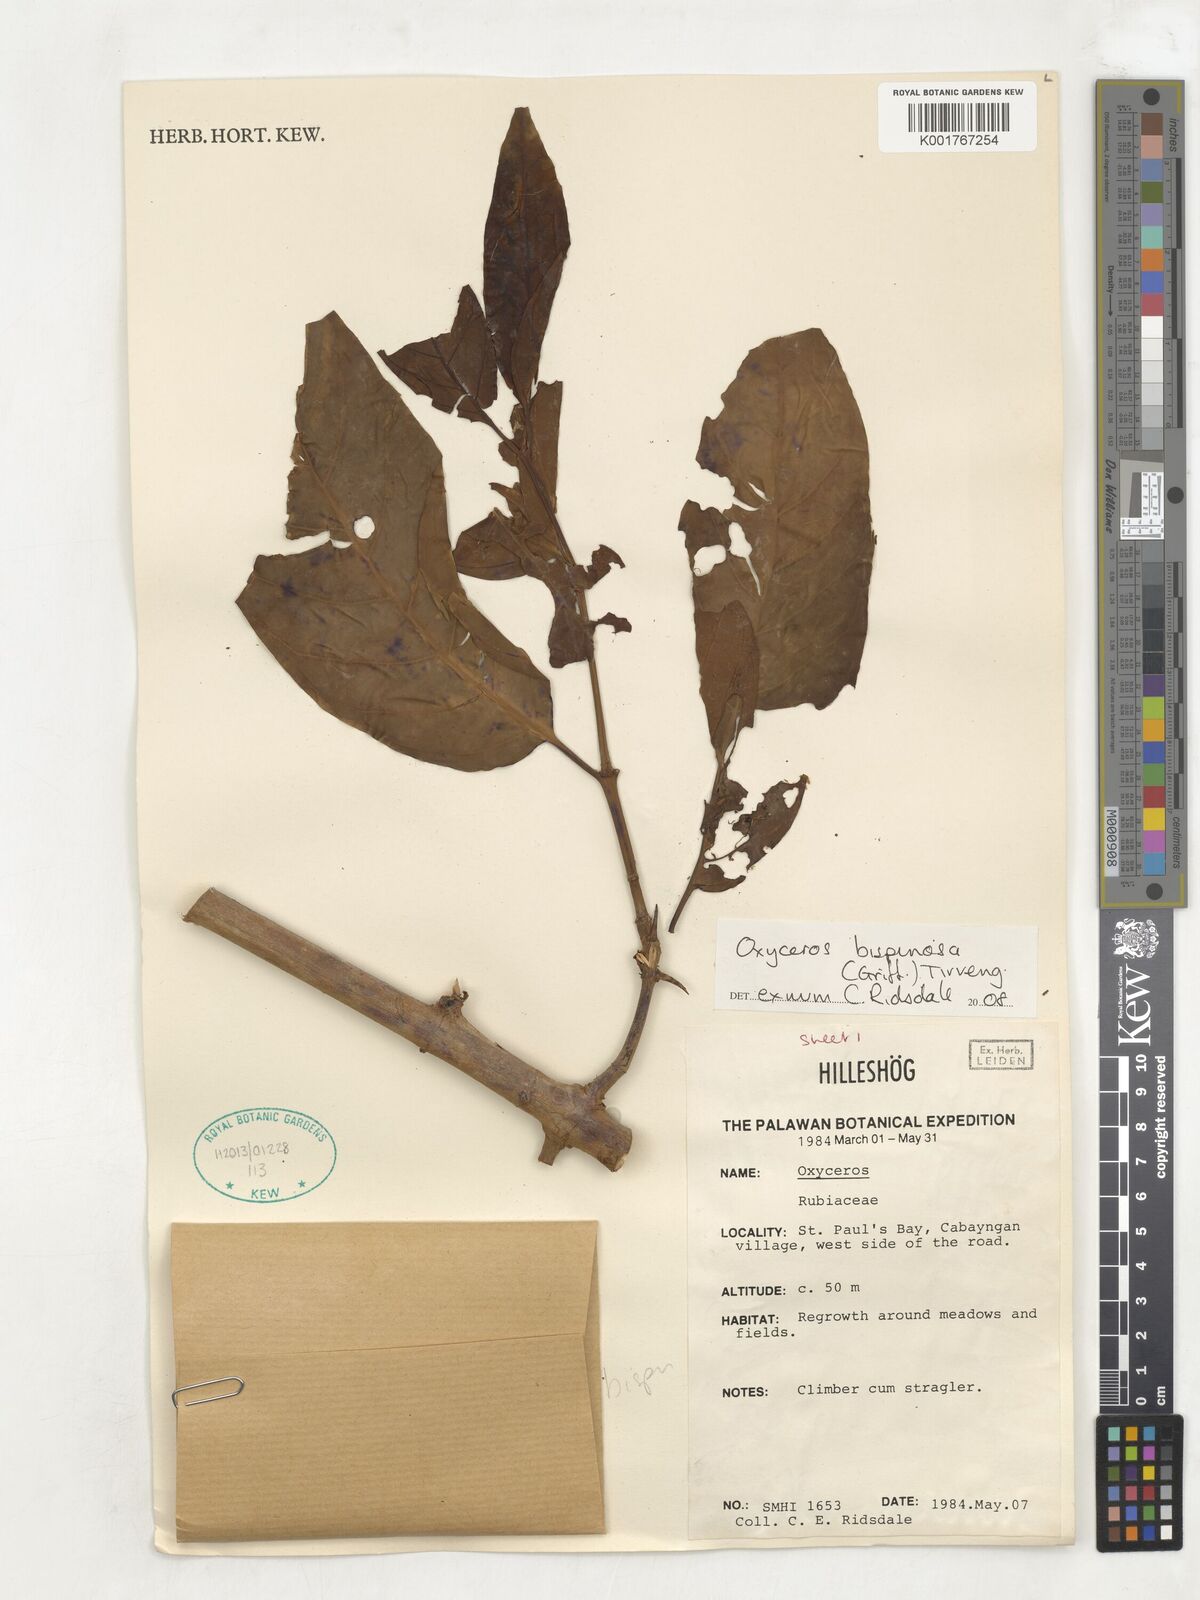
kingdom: Plantae
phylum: Tracheophyta
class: Magnoliopsida
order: Gentianales
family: Rubiaceae
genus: Oxyceros
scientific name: Oxyceros bispinosus
